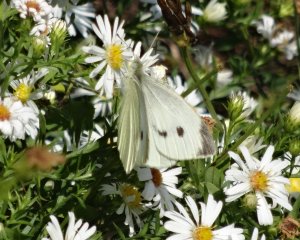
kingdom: Animalia
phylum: Arthropoda
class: Insecta
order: Lepidoptera
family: Pieridae
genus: Pieris
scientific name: Pieris rapae
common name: Cabbage White
